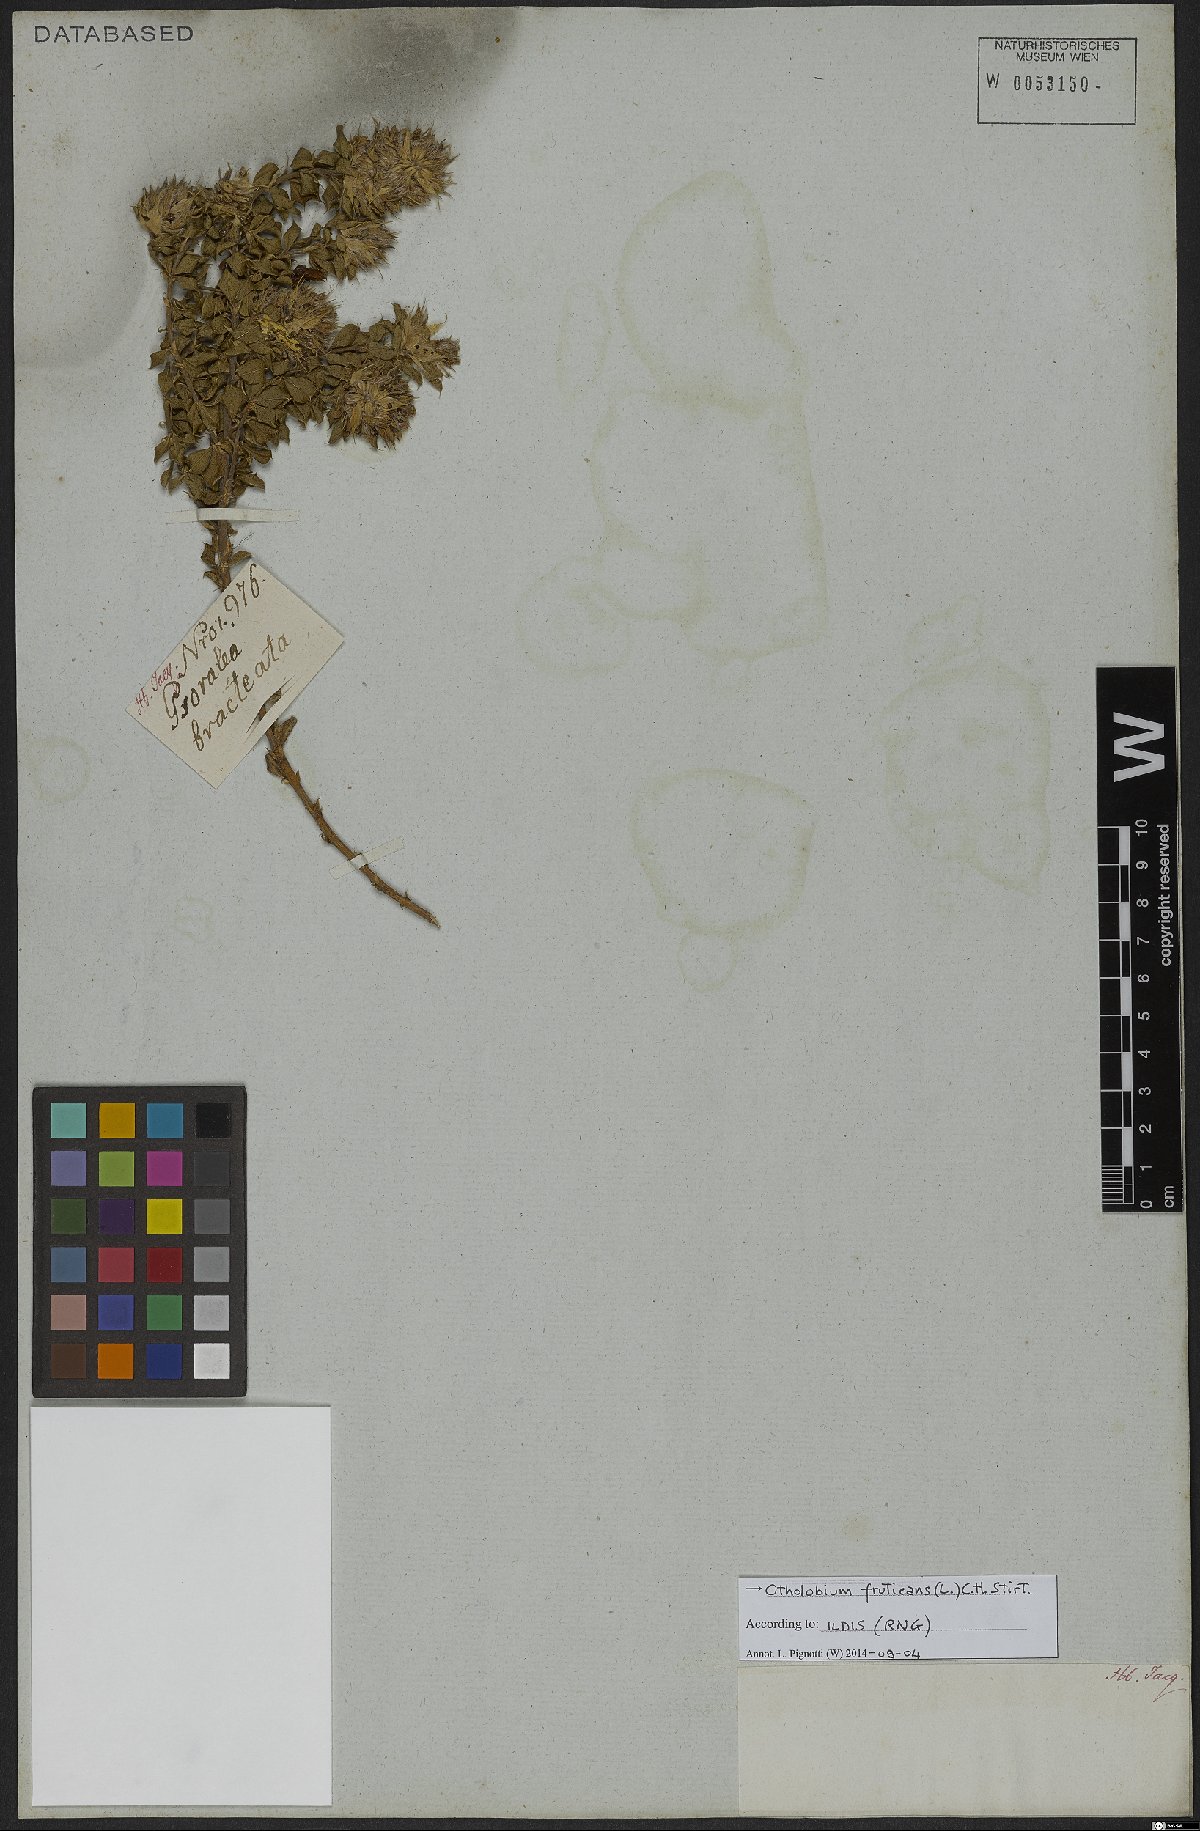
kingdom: Plantae
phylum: Tracheophyta
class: Magnoliopsida
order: Fabales
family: Fabaceae
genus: Psoralea
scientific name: Psoralea fruticans
